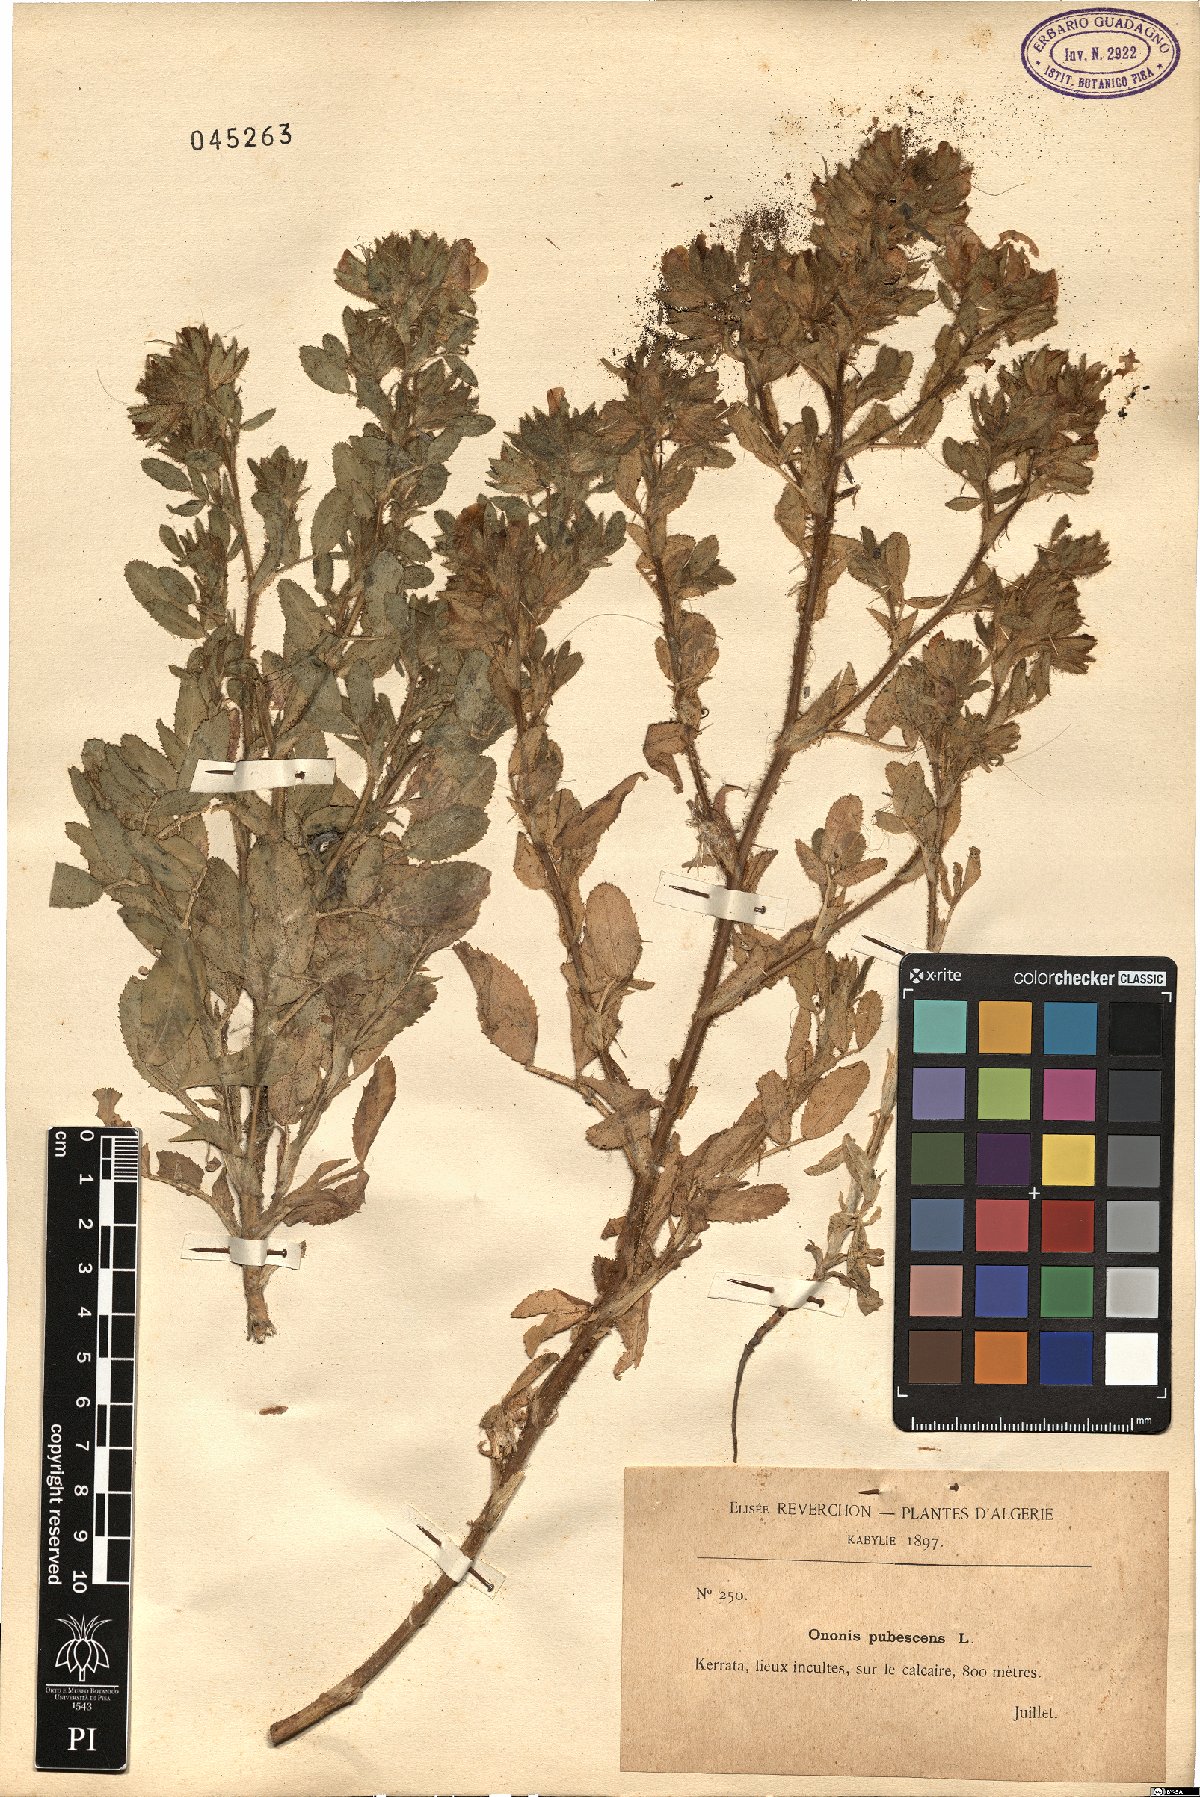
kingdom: Plantae
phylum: Tracheophyta
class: Magnoliopsida
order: Fabales
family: Fabaceae
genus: Ononis
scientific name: Ononis pubescens
